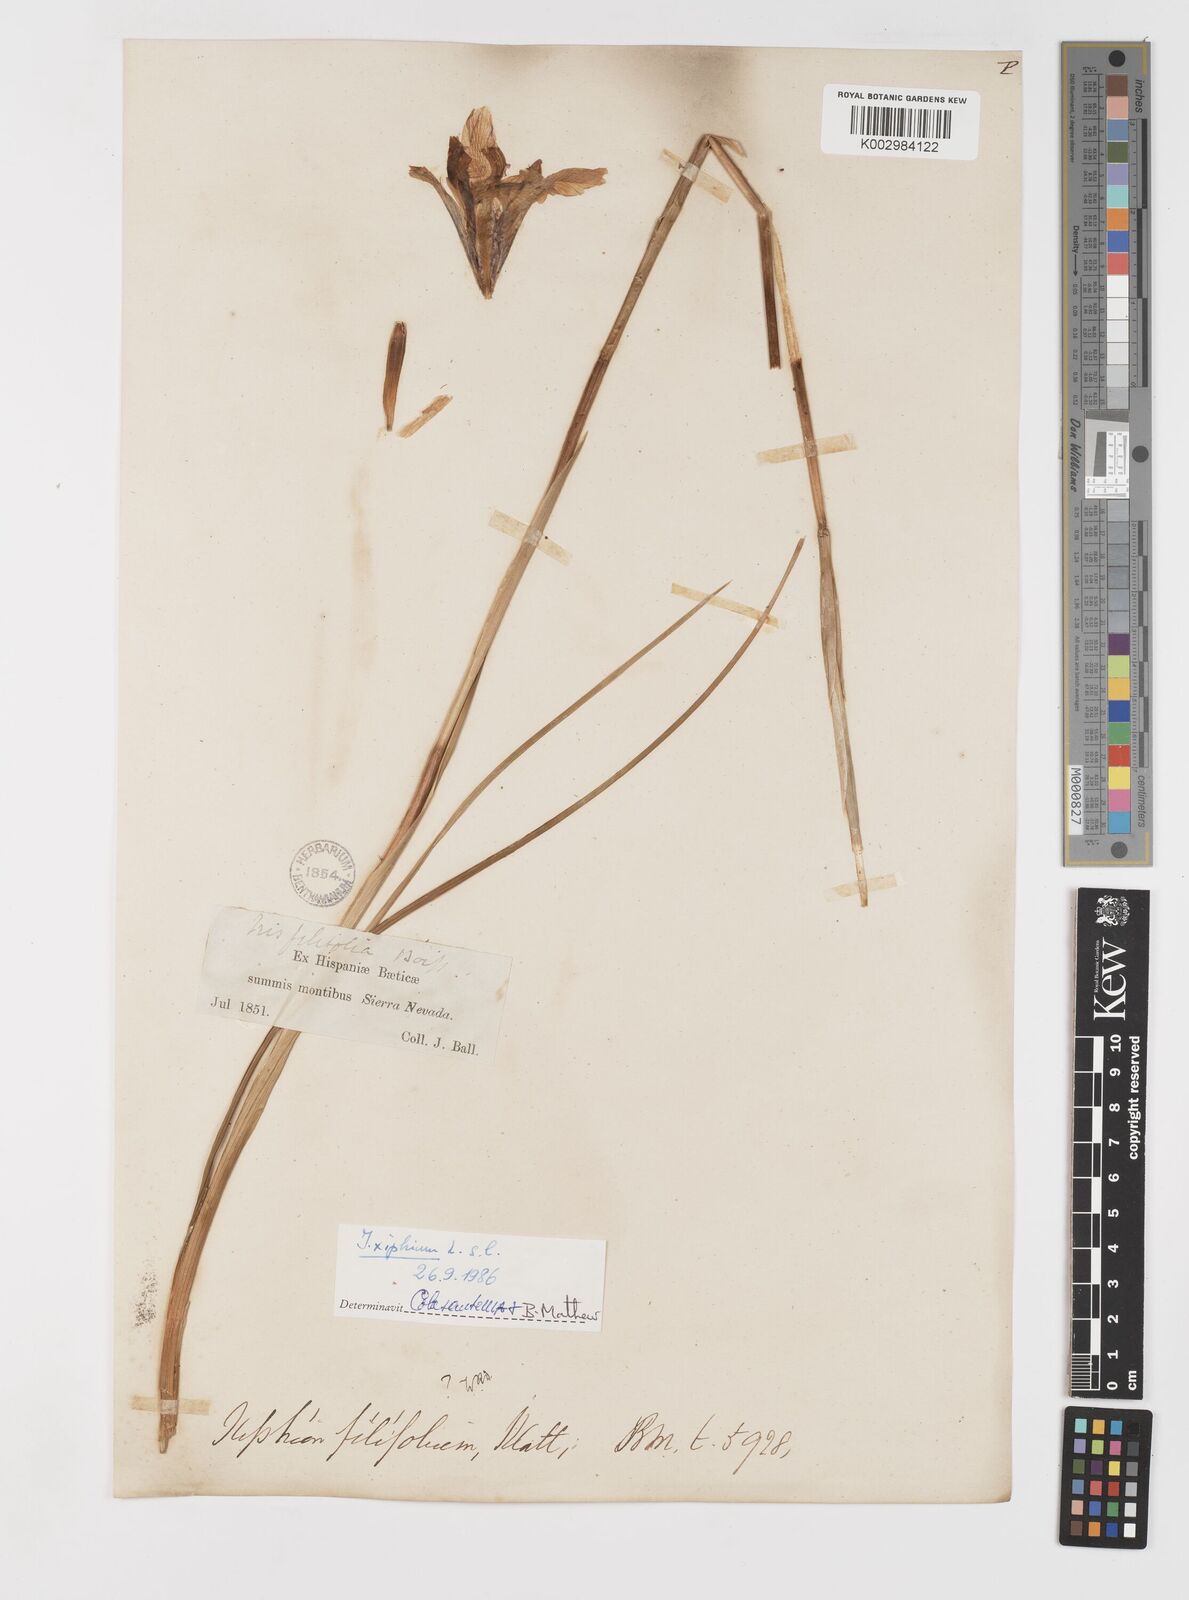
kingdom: Plantae
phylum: Tracheophyta
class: Liliopsida
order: Asparagales
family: Iridaceae
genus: Iris
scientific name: Iris xiphium
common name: Spanish iris
